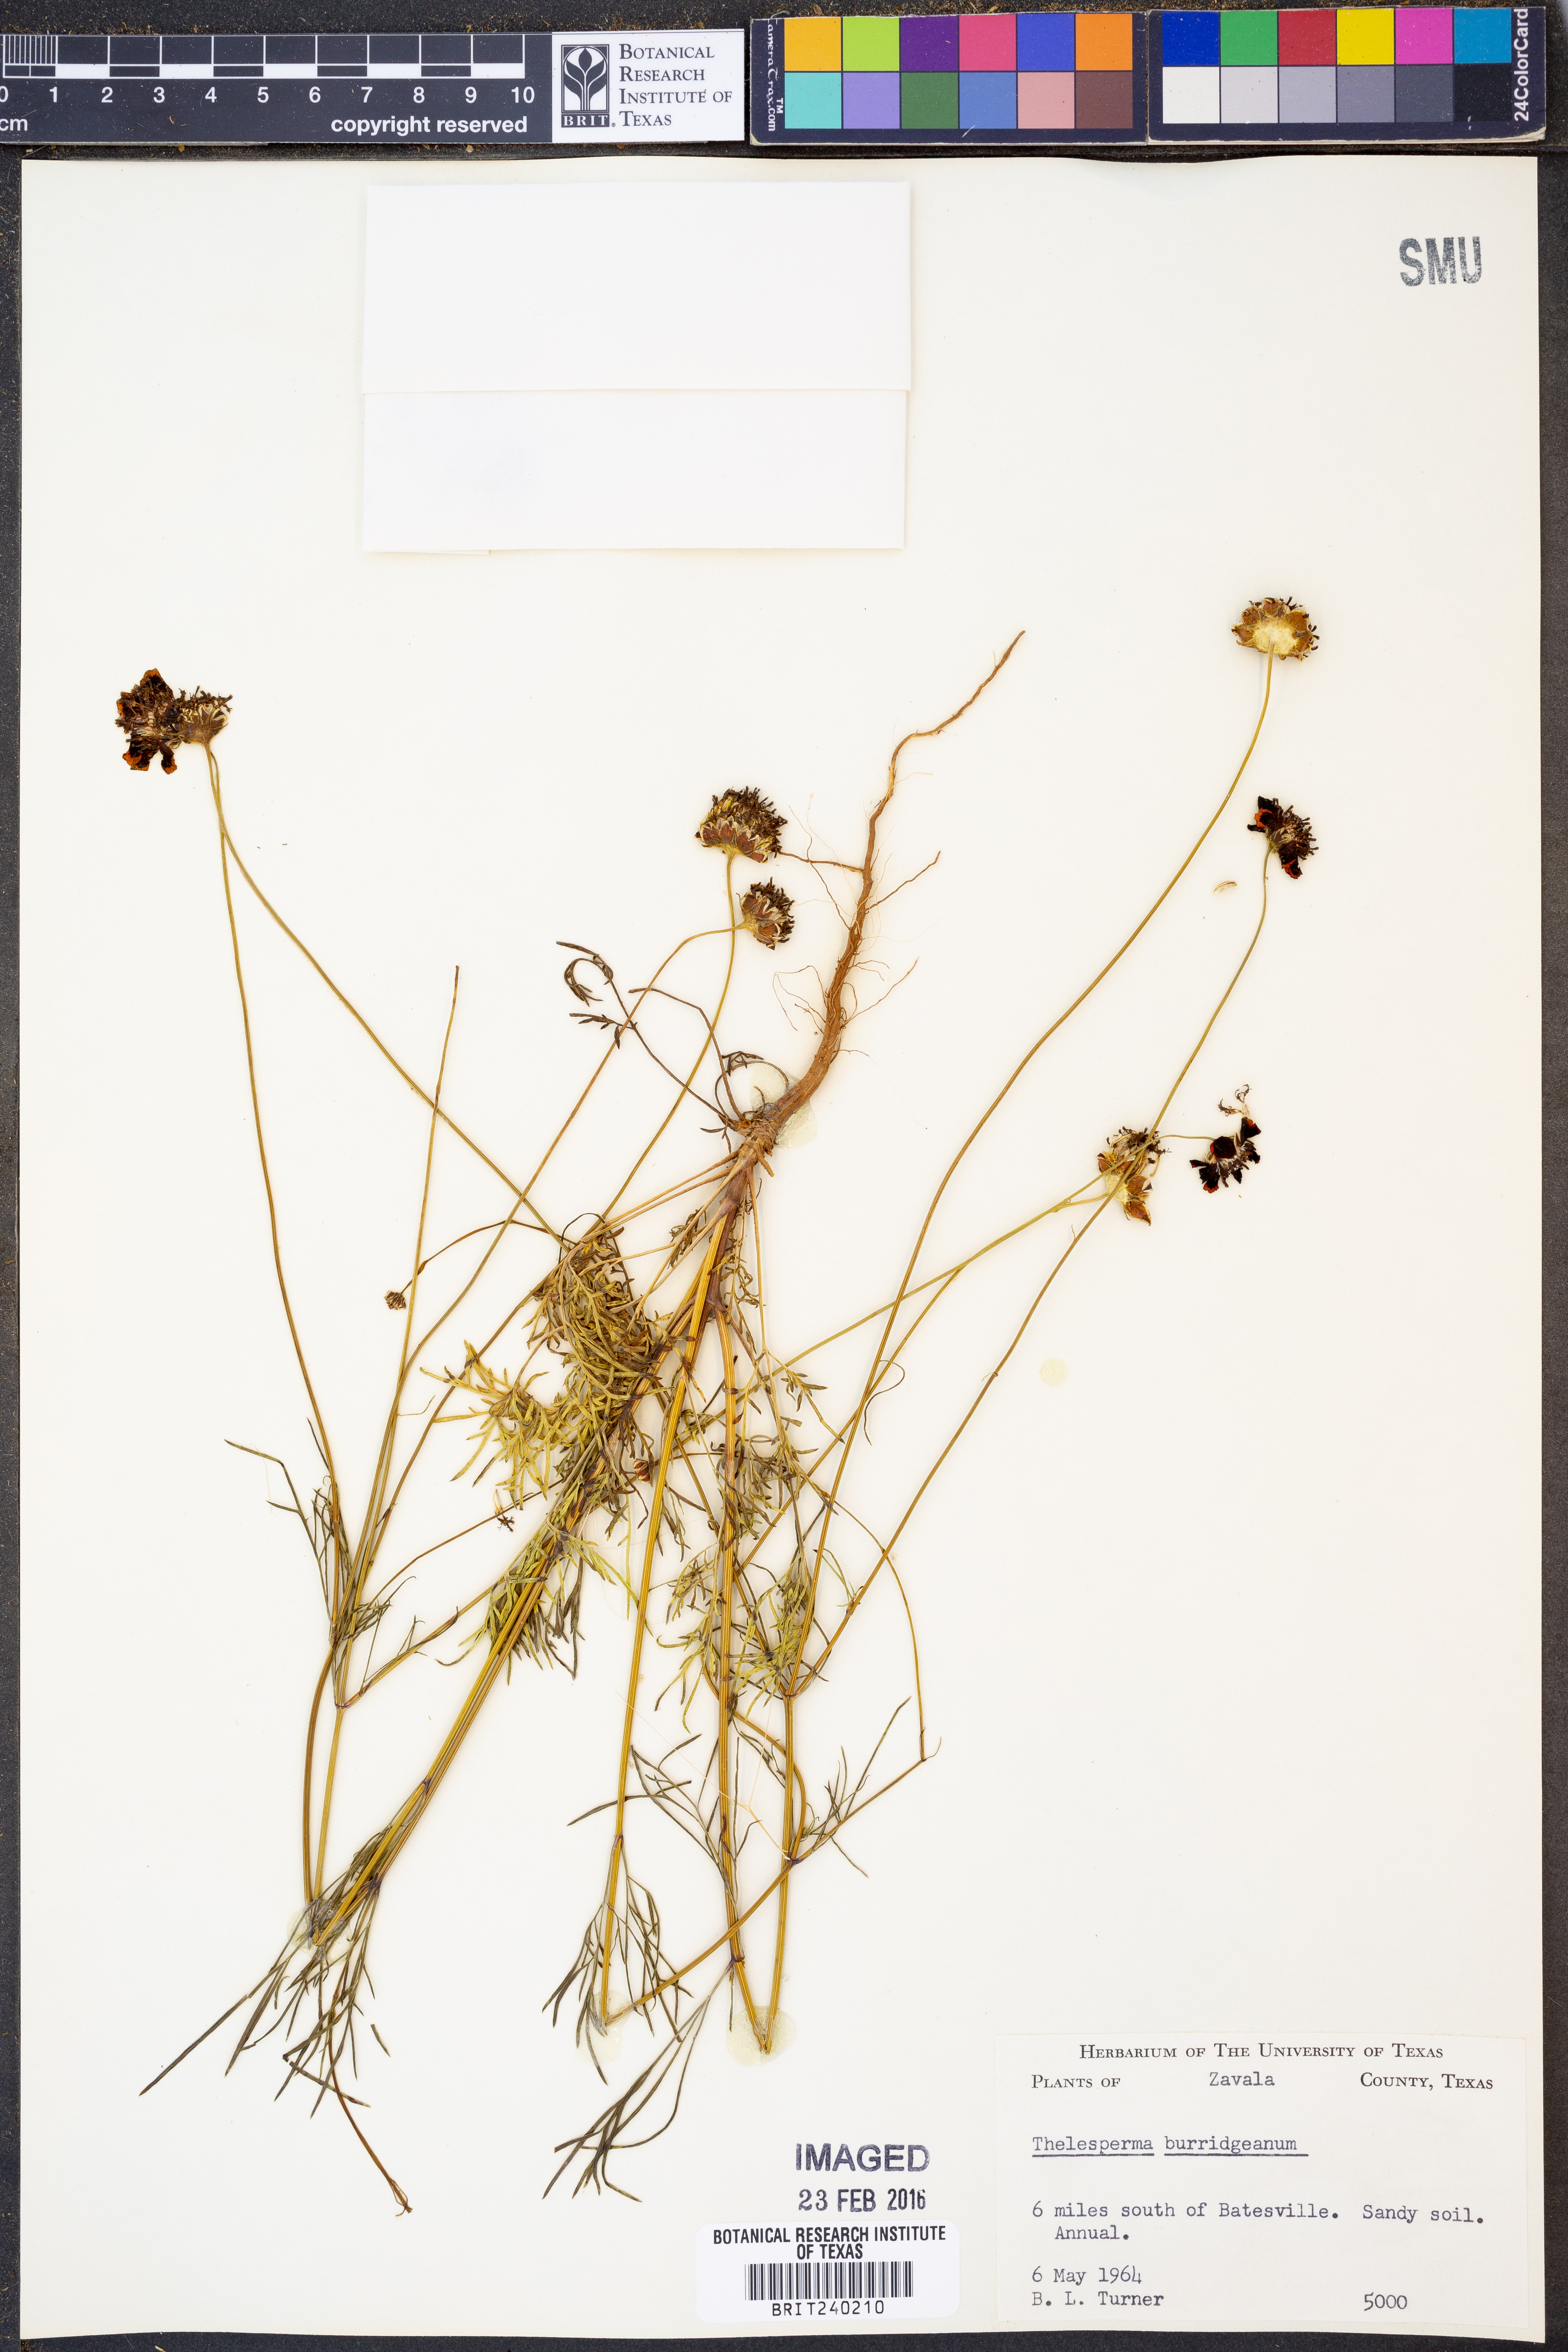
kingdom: Plantae
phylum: Tracheophyta
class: Magnoliopsida
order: Asterales
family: Asteraceae
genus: Thelesperma
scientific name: Thelesperma burridgeanum
